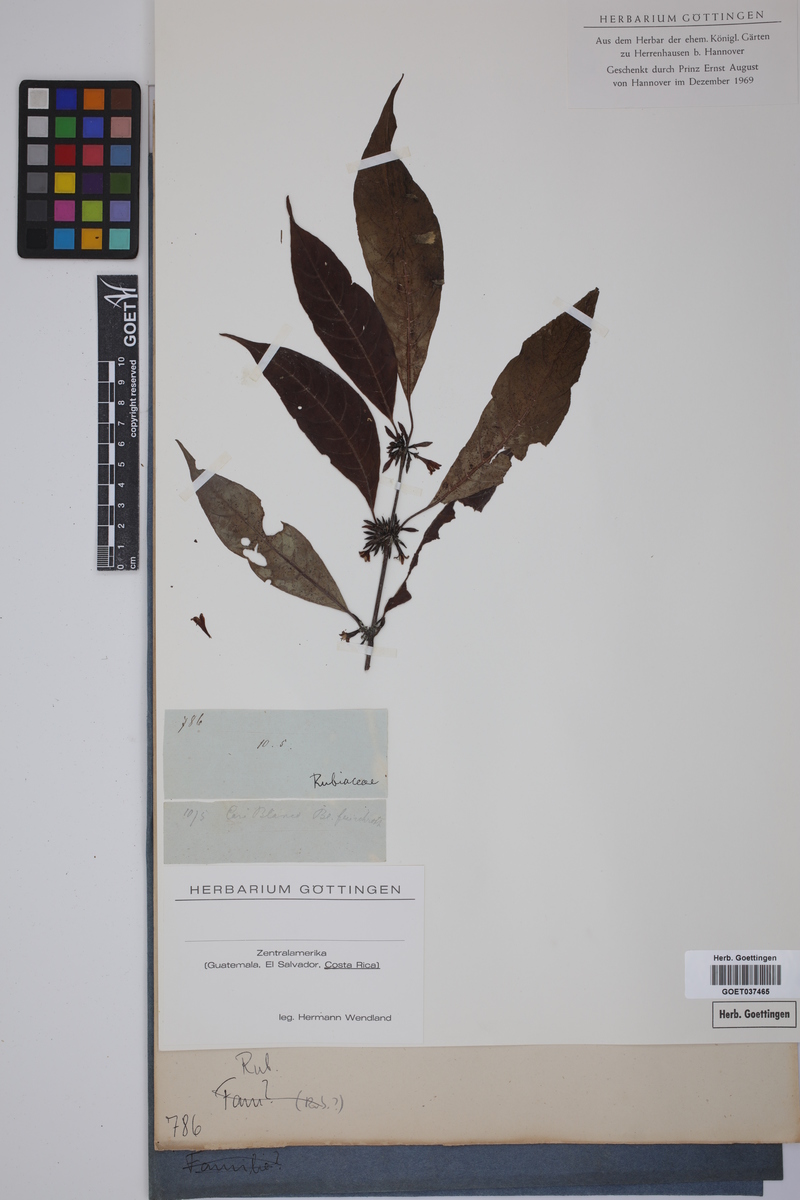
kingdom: Plantae
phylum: Tracheophyta
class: Magnoliopsida
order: Gentianales
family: Rubiaceae
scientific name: Rubiaceae
